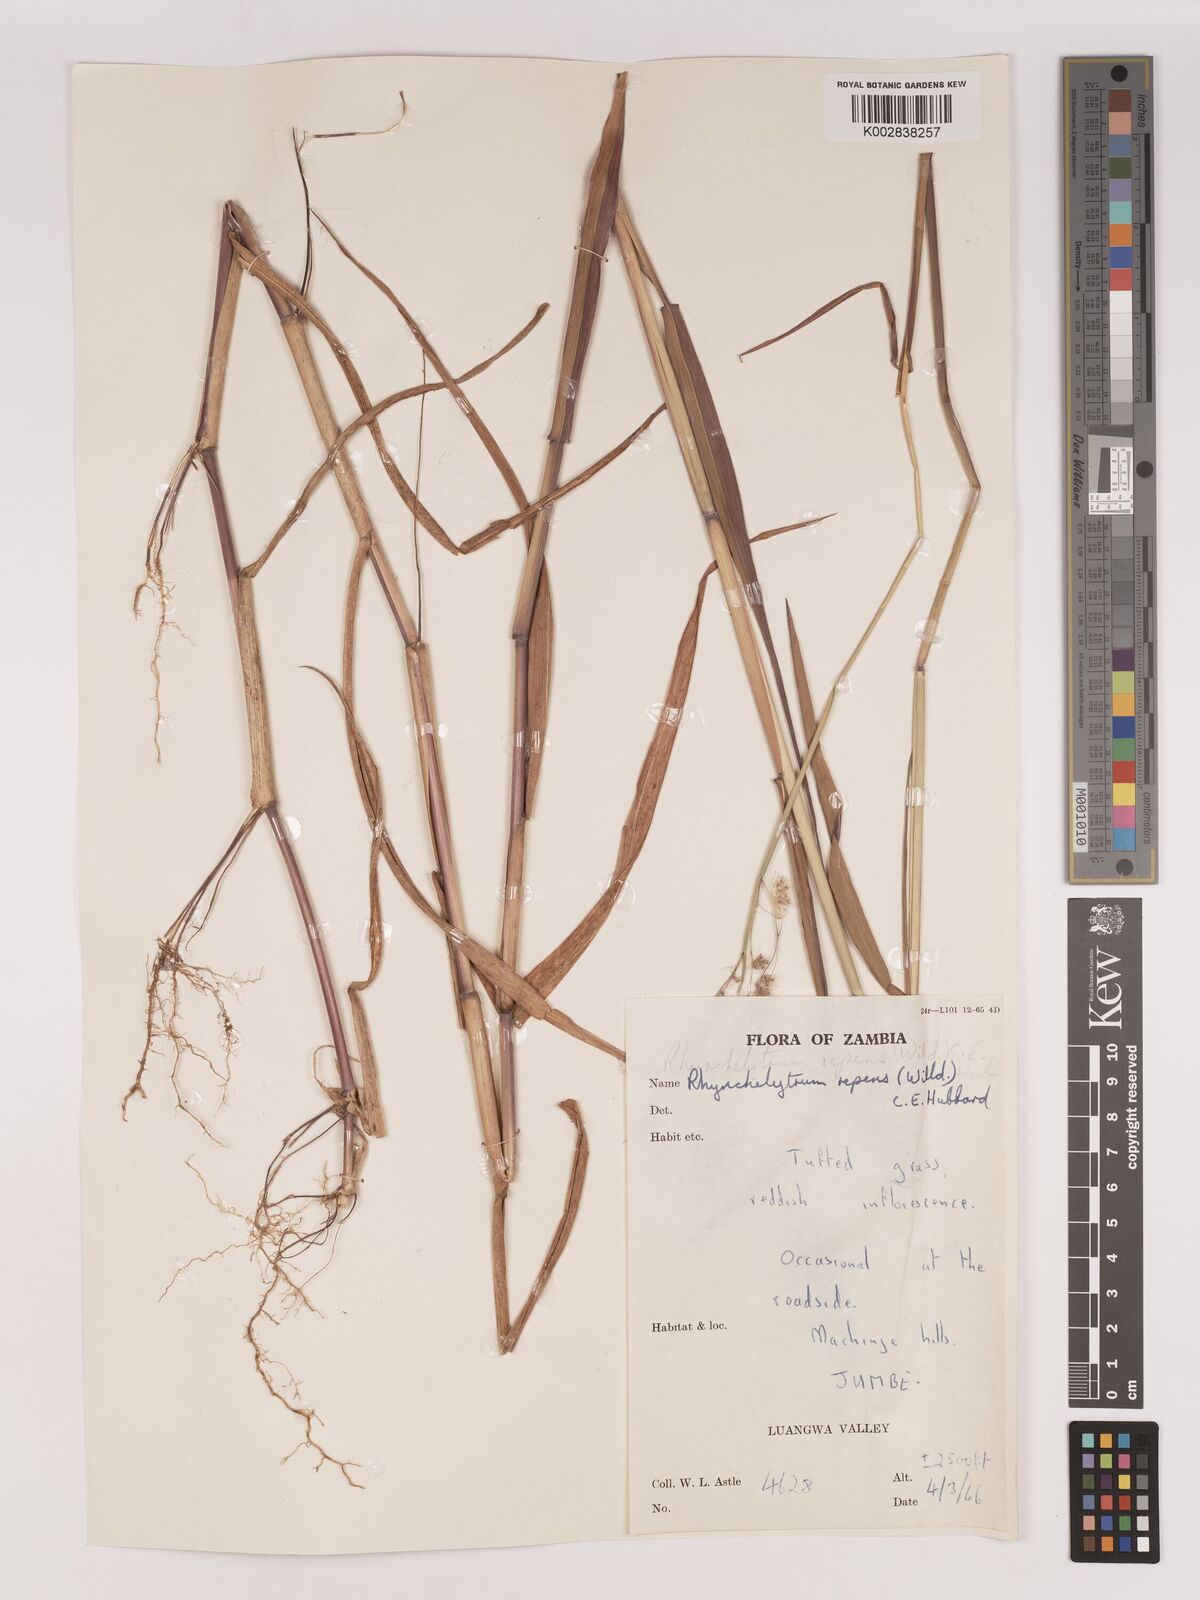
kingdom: Plantae
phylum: Tracheophyta
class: Liliopsida
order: Poales
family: Poaceae
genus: Melinis
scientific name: Melinis repens
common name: Rose natal grass
